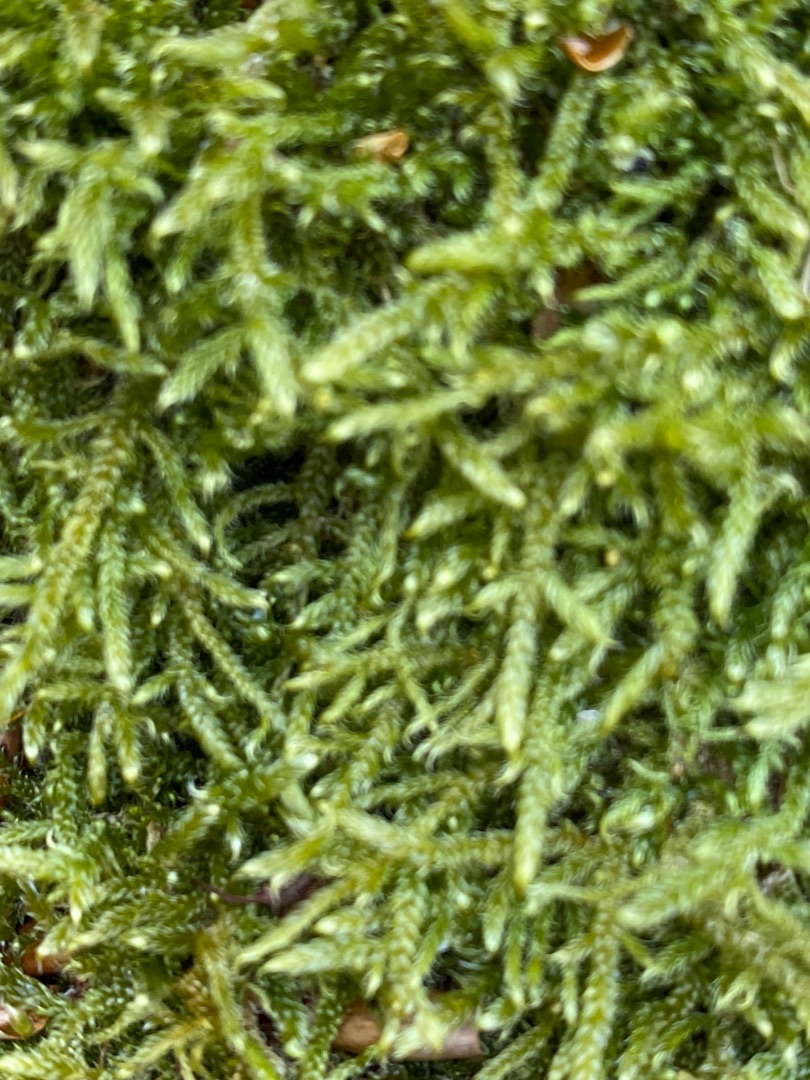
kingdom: Plantae
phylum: Bryophyta
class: Bryopsida
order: Hypnales
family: Hypnaceae
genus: Hypnum
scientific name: Hypnum
